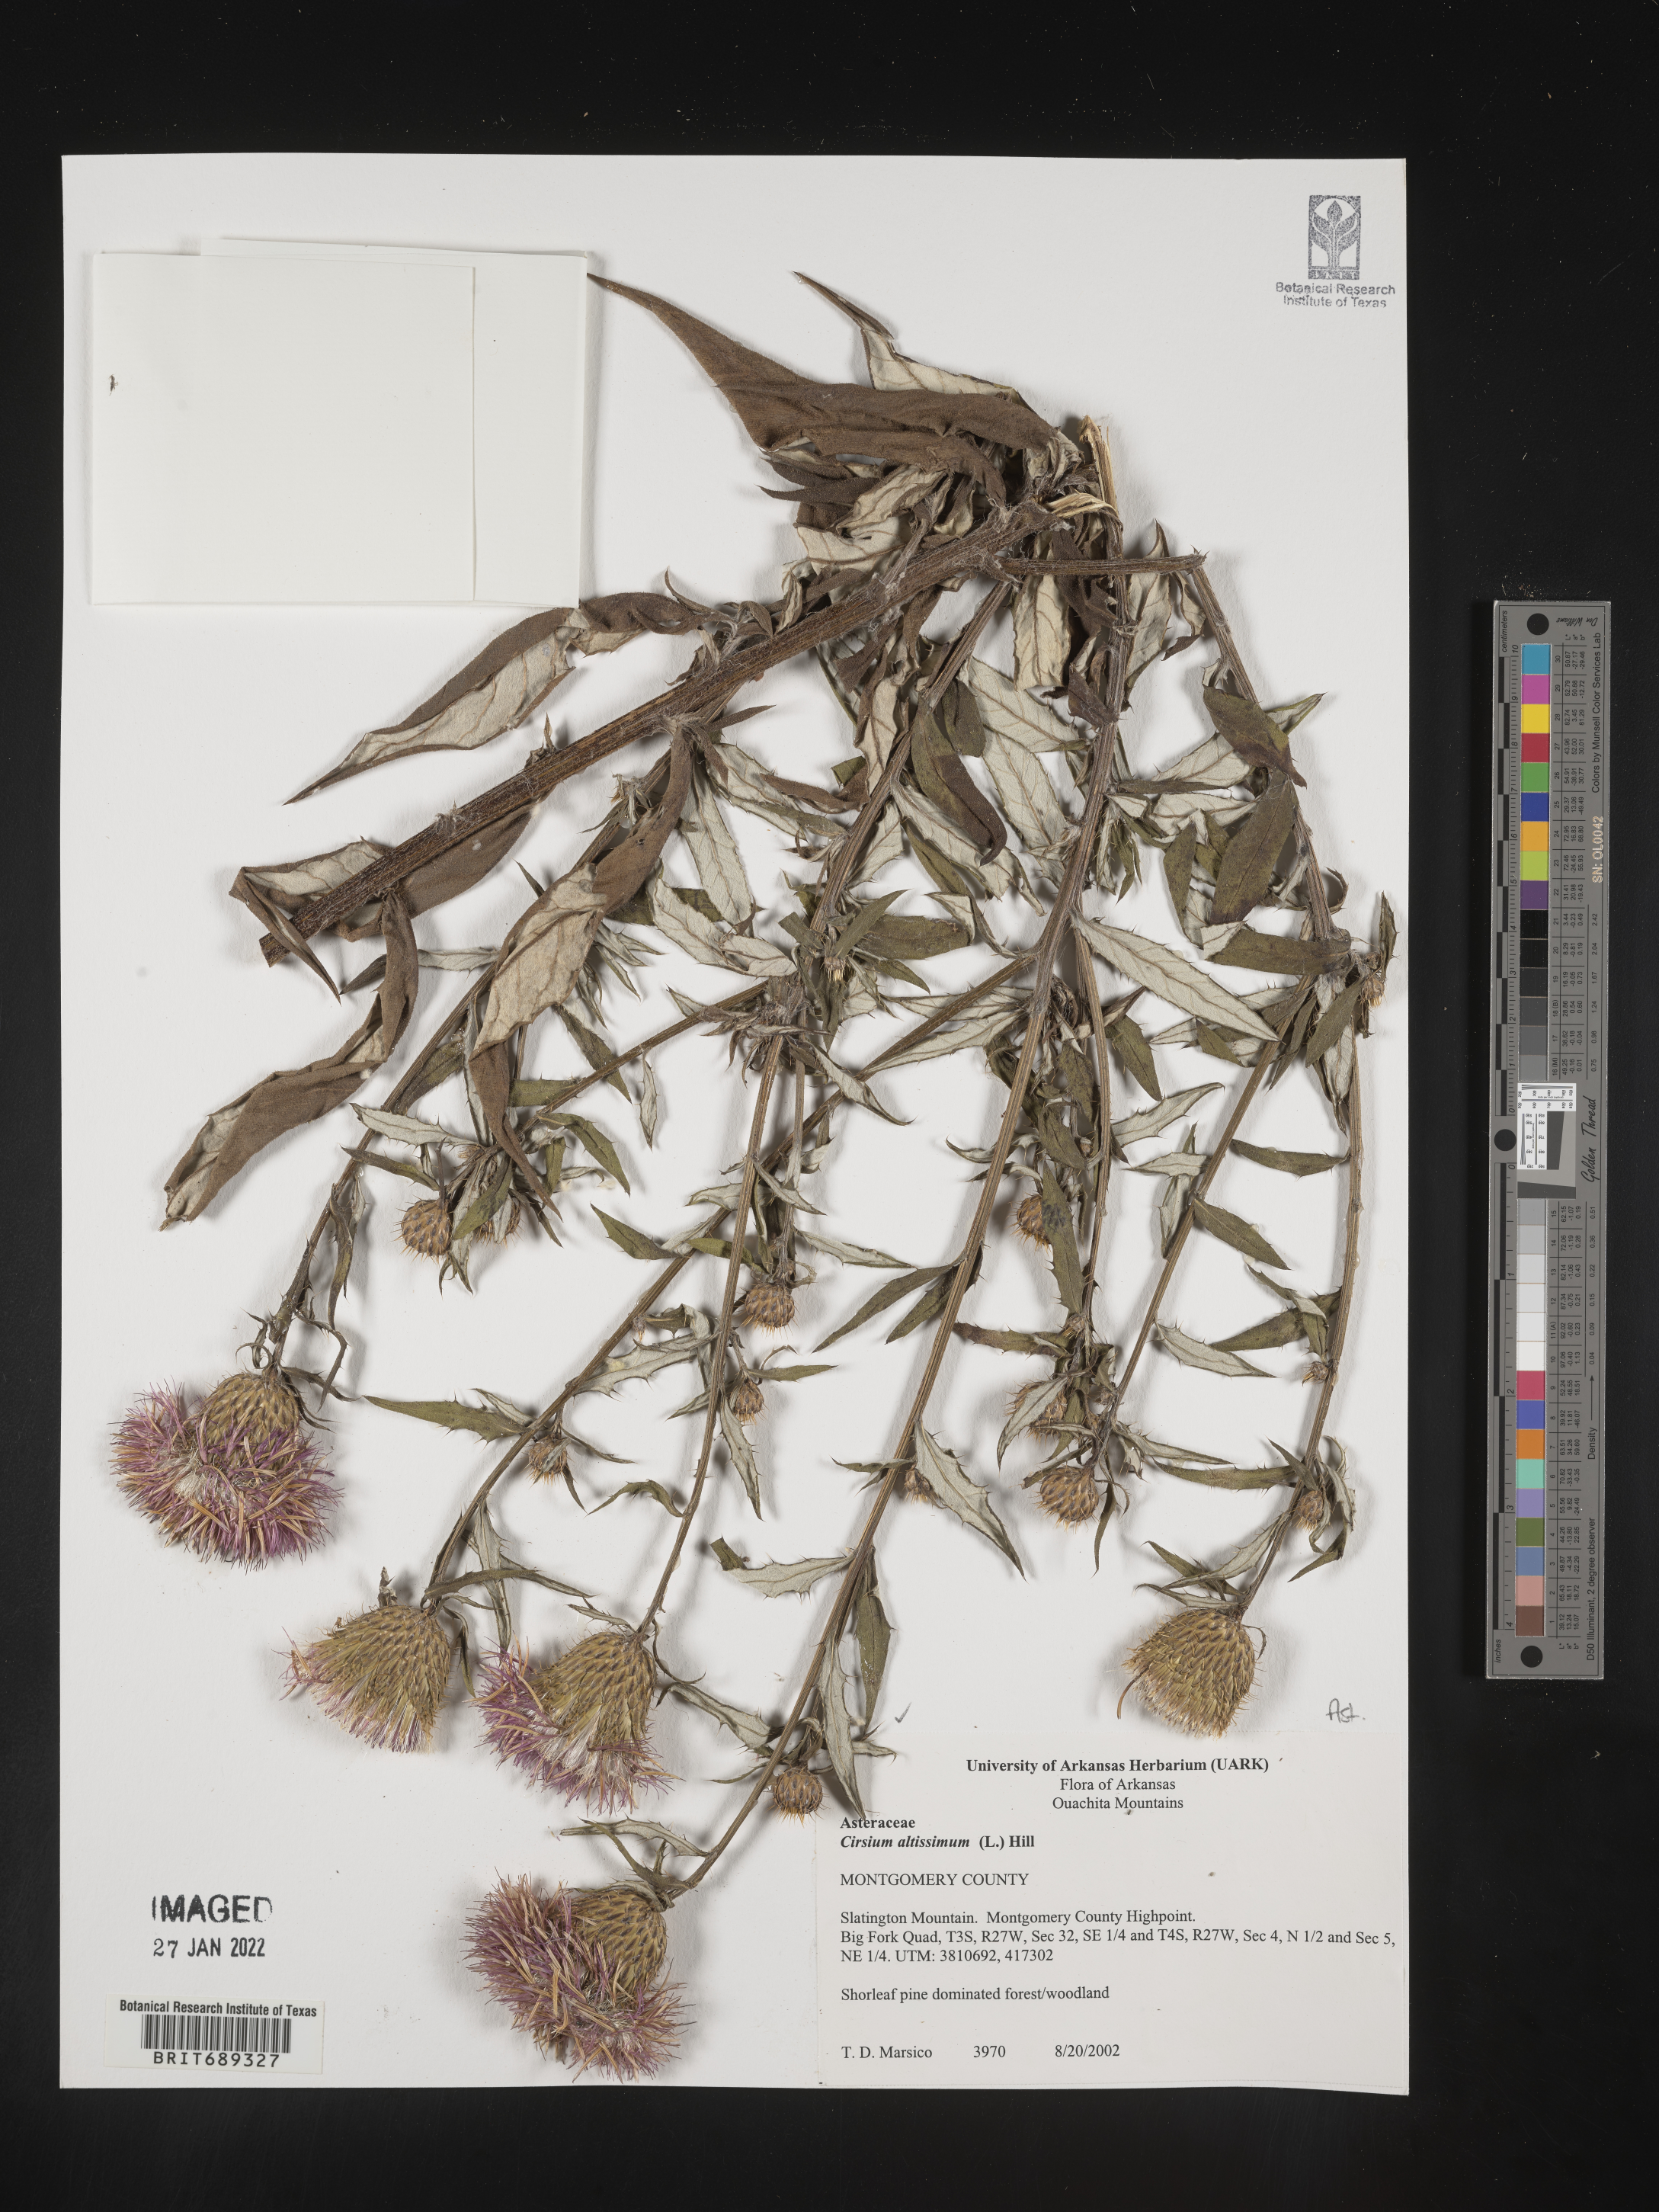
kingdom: Plantae
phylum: Tracheophyta
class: Magnoliopsida
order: Asterales
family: Asteraceae
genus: Cirsium
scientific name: Cirsium altissimum
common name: Roadside thistle
